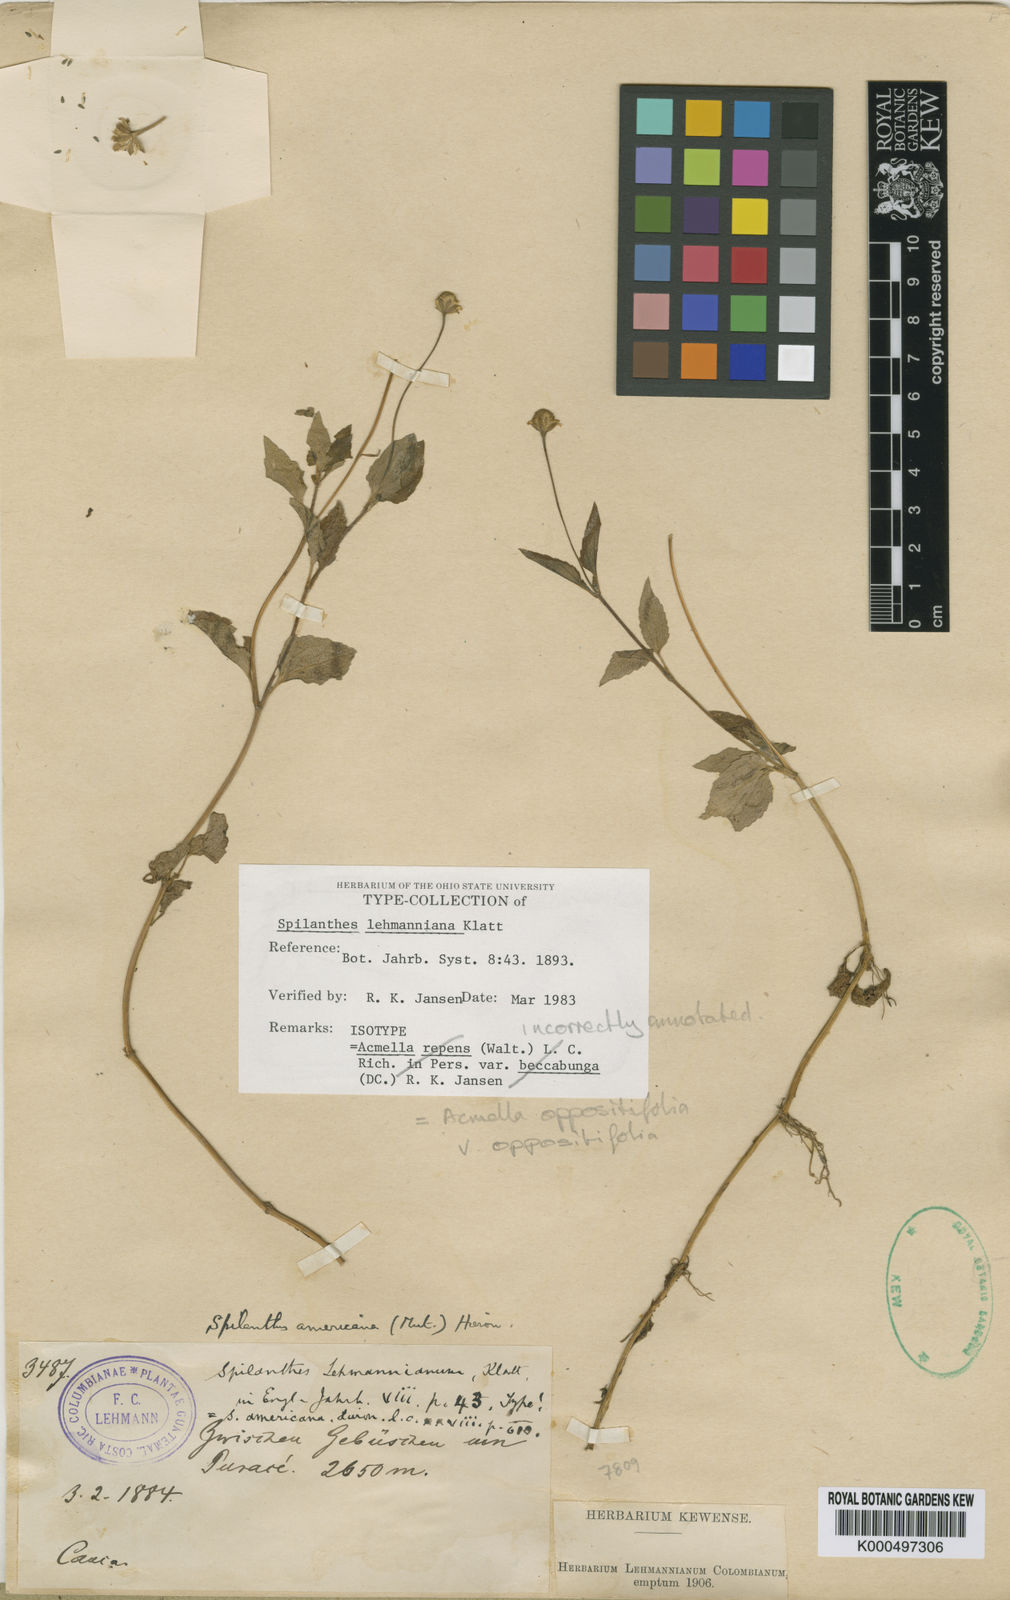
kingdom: Plantae
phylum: Tracheophyta
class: Magnoliopsida
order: Asterales
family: Asteraceae
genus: Heliopsis
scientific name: Heliopsis buphthalmoides
